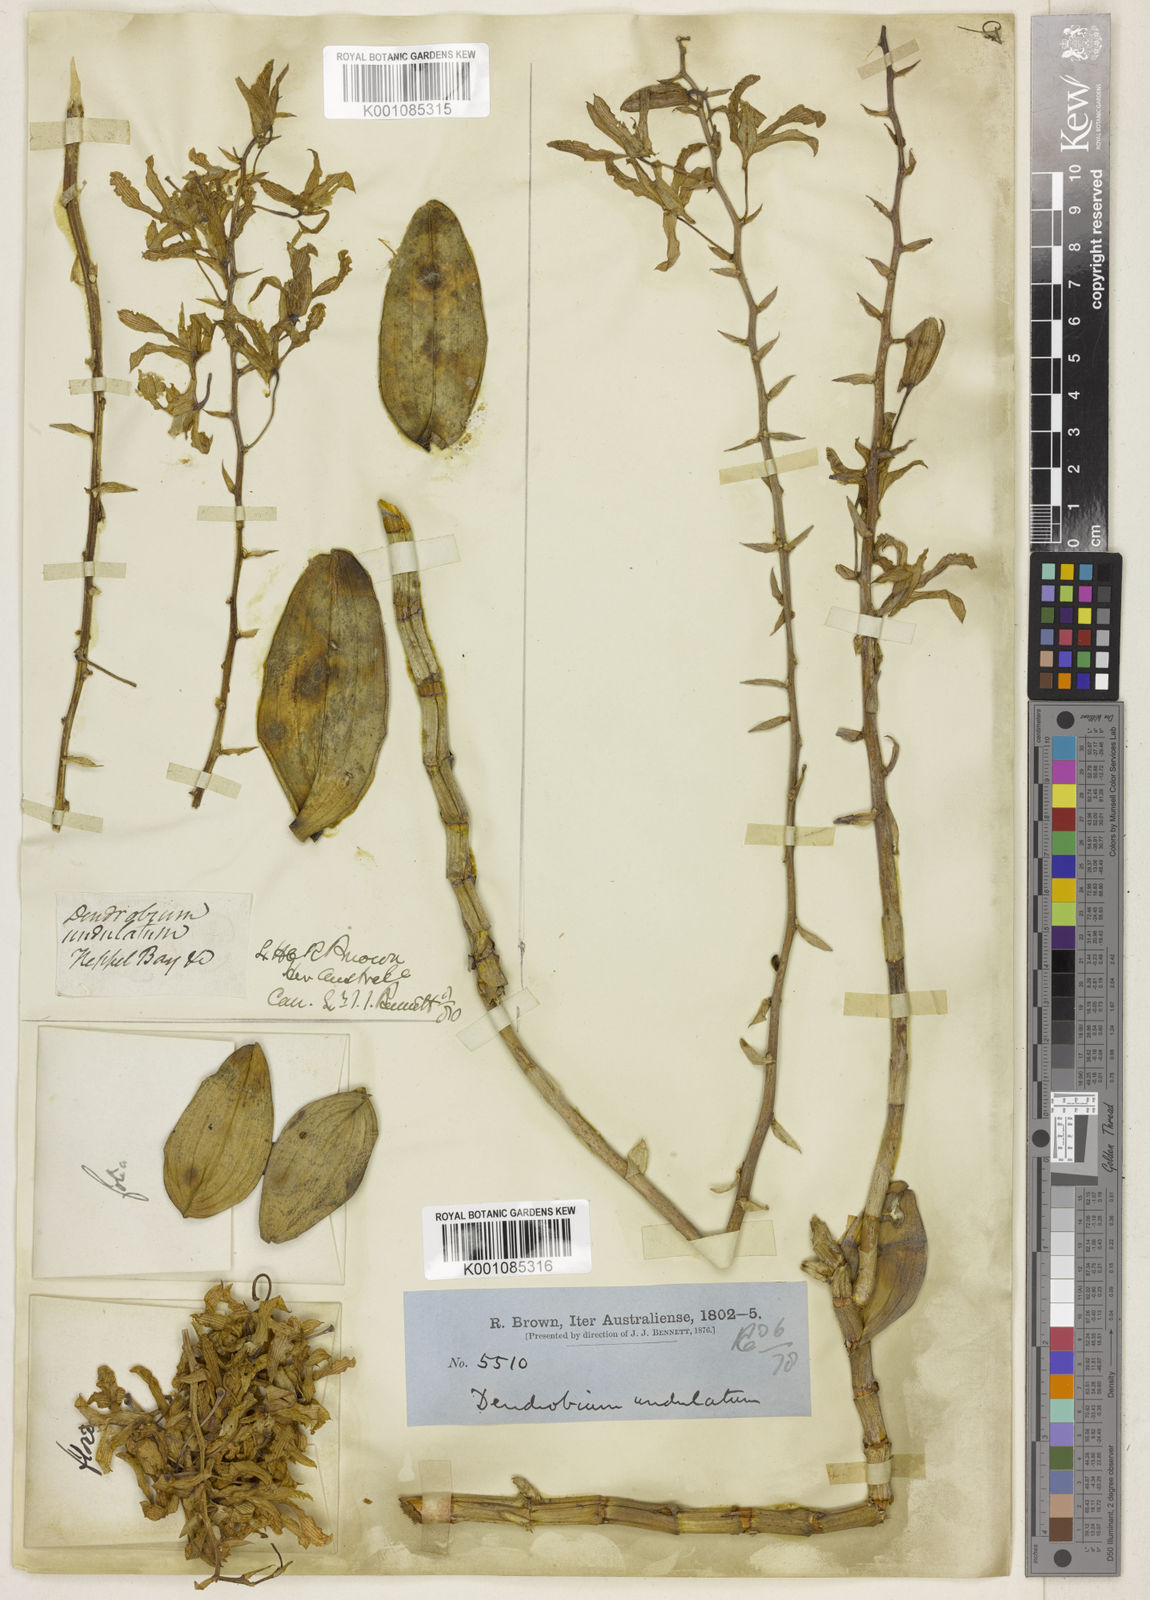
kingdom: Plantae
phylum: Tracheophyta
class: Liliopsida
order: Asparagales
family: Orchidaceae
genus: Dendrobium
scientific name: Dendrobium discolor
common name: Golden antler orchid
